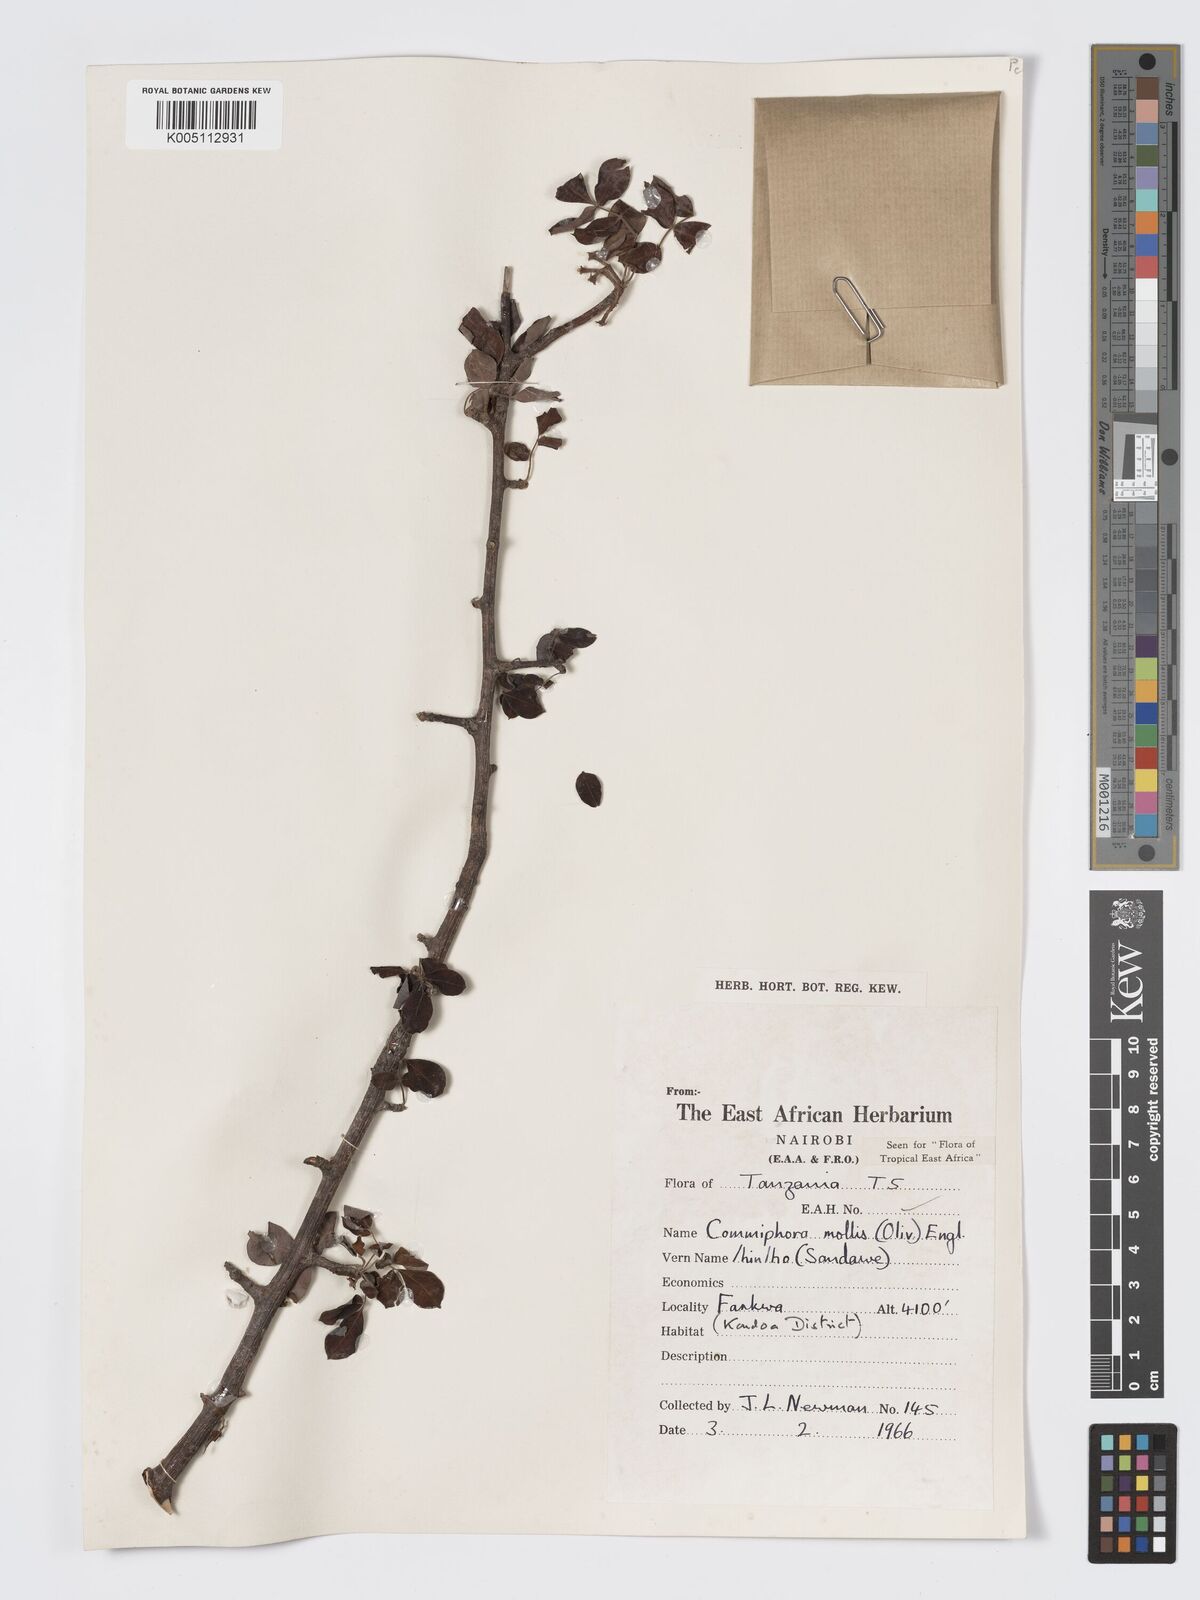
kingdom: Plantae
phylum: Tracheophyta
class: Magnoliopsida
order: Sapindales
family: Burseraceae
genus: Commiphora
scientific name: Commiphora
